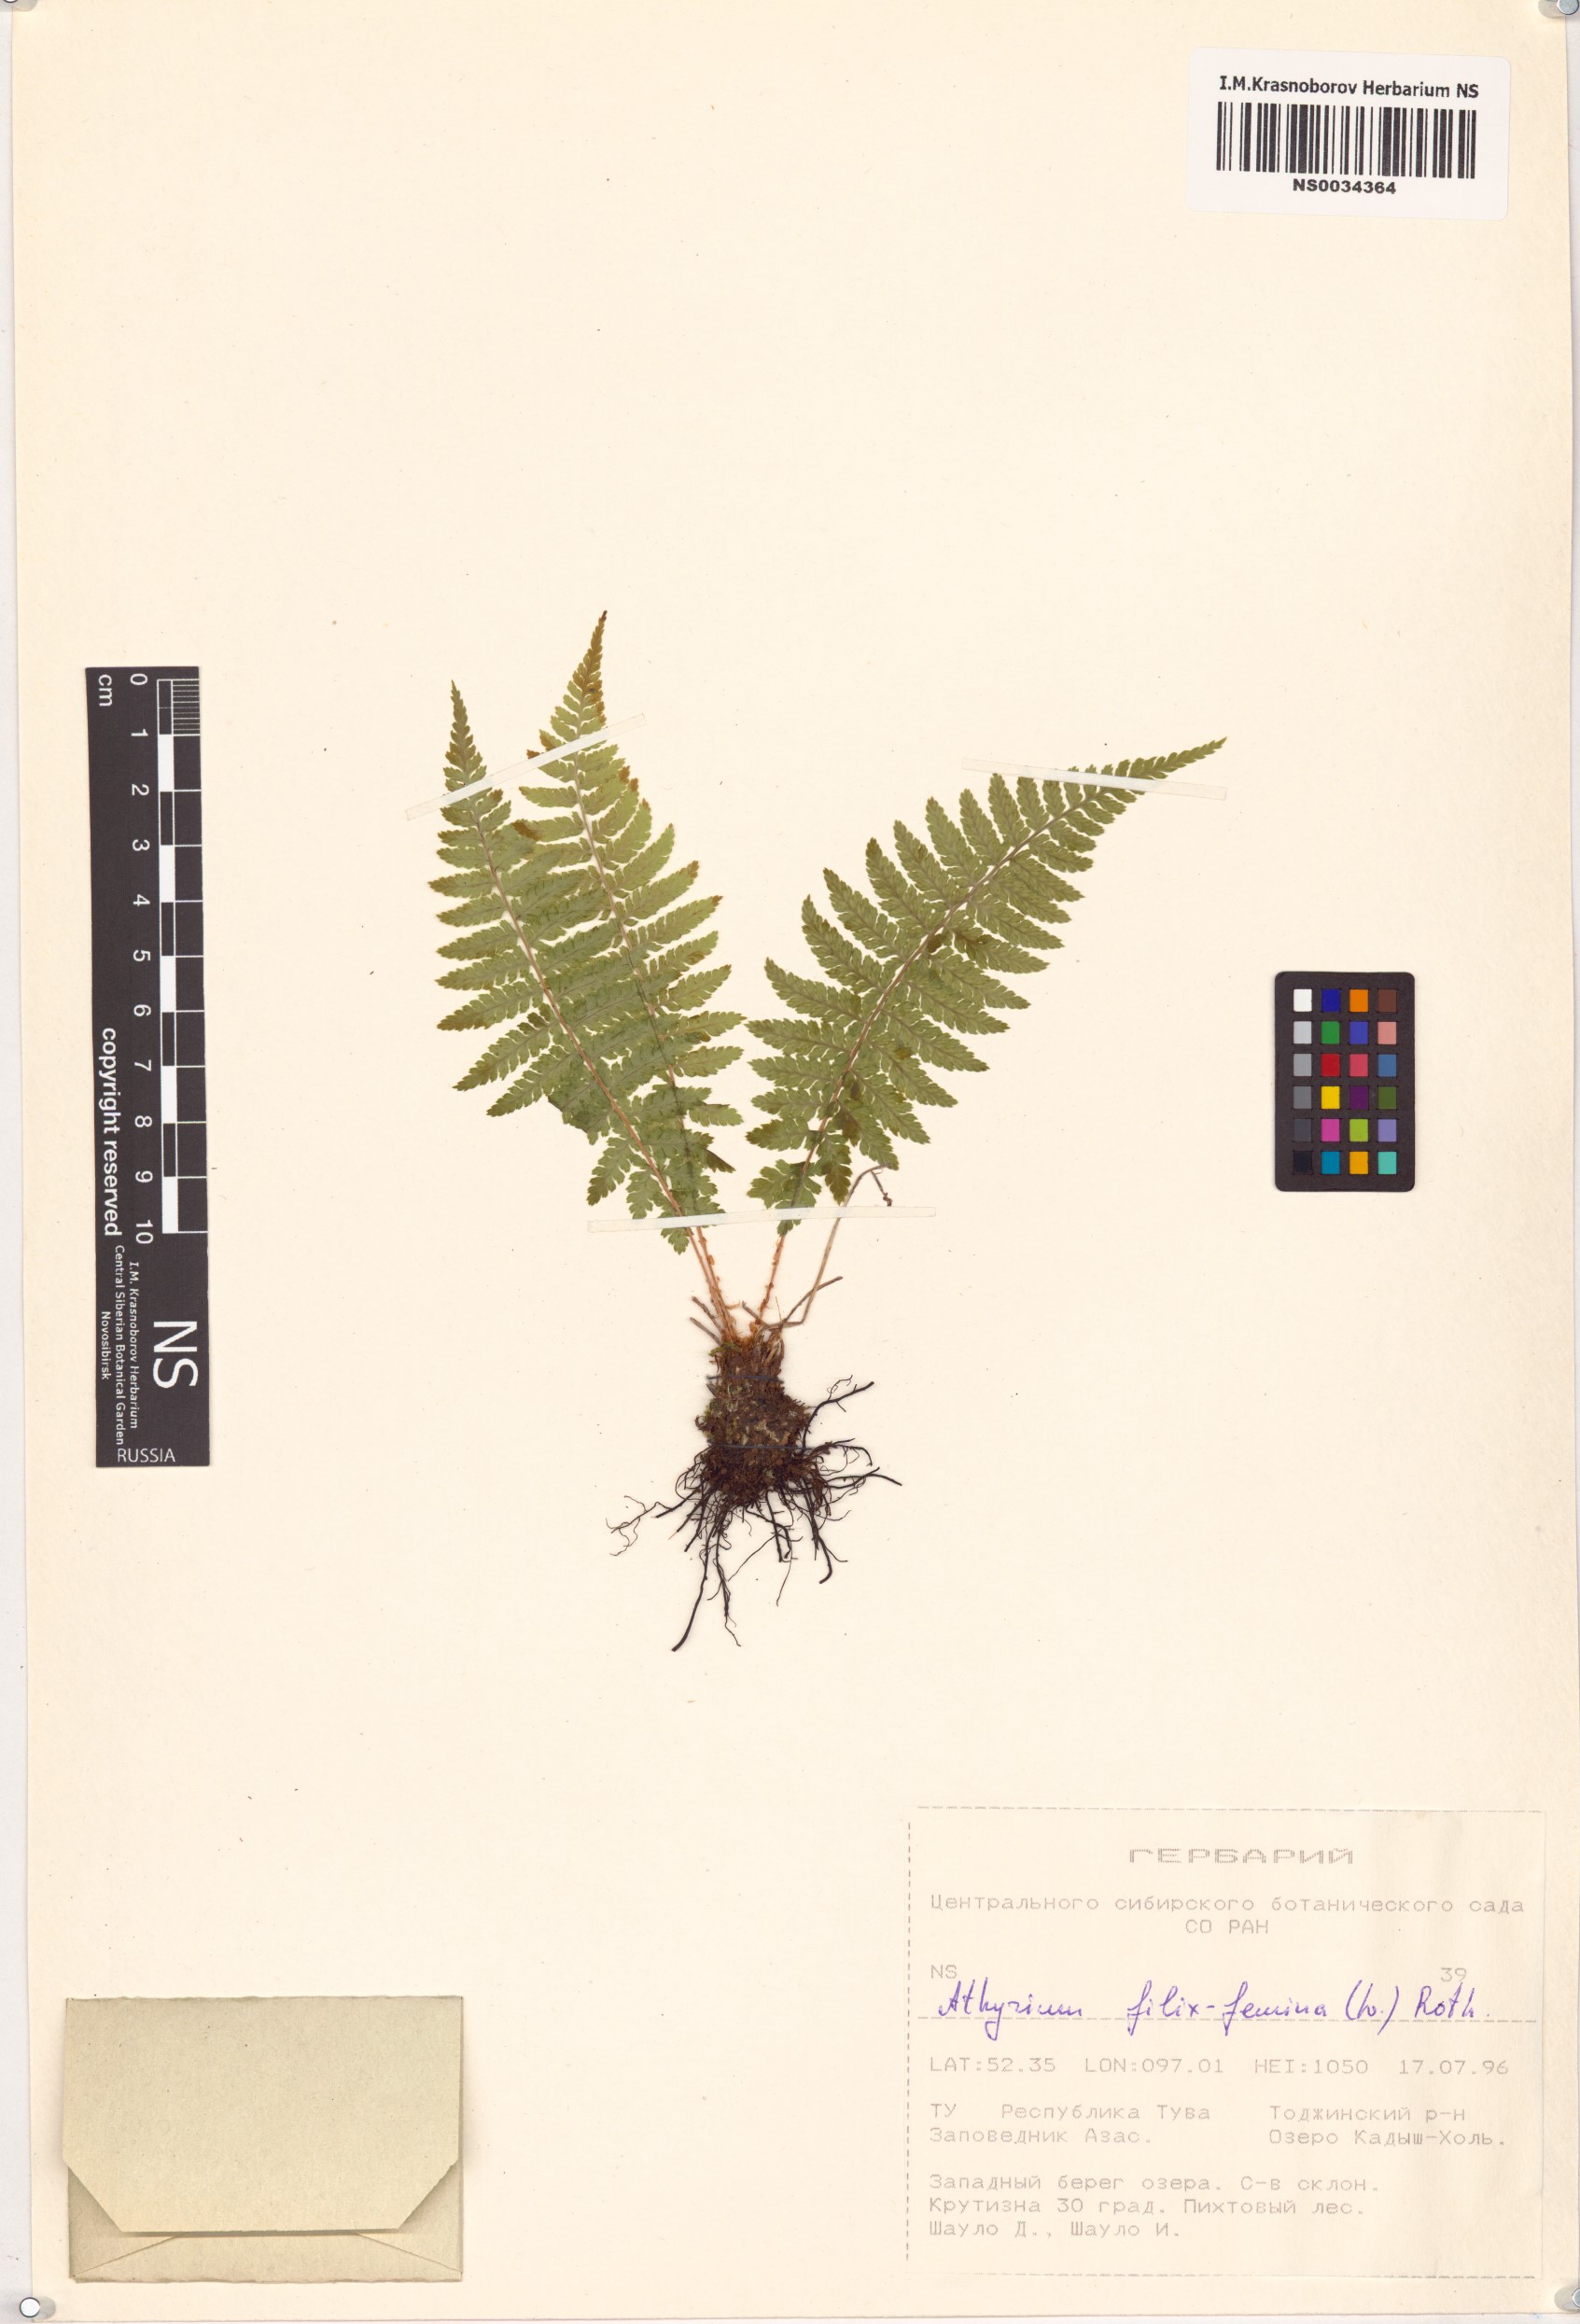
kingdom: Plantae
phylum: Tracheophyta
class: Polypodiopsida
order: Polypodiales
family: Athyriaceae
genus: Athyrium
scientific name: Athyrium filix-femina
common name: Lady fern
